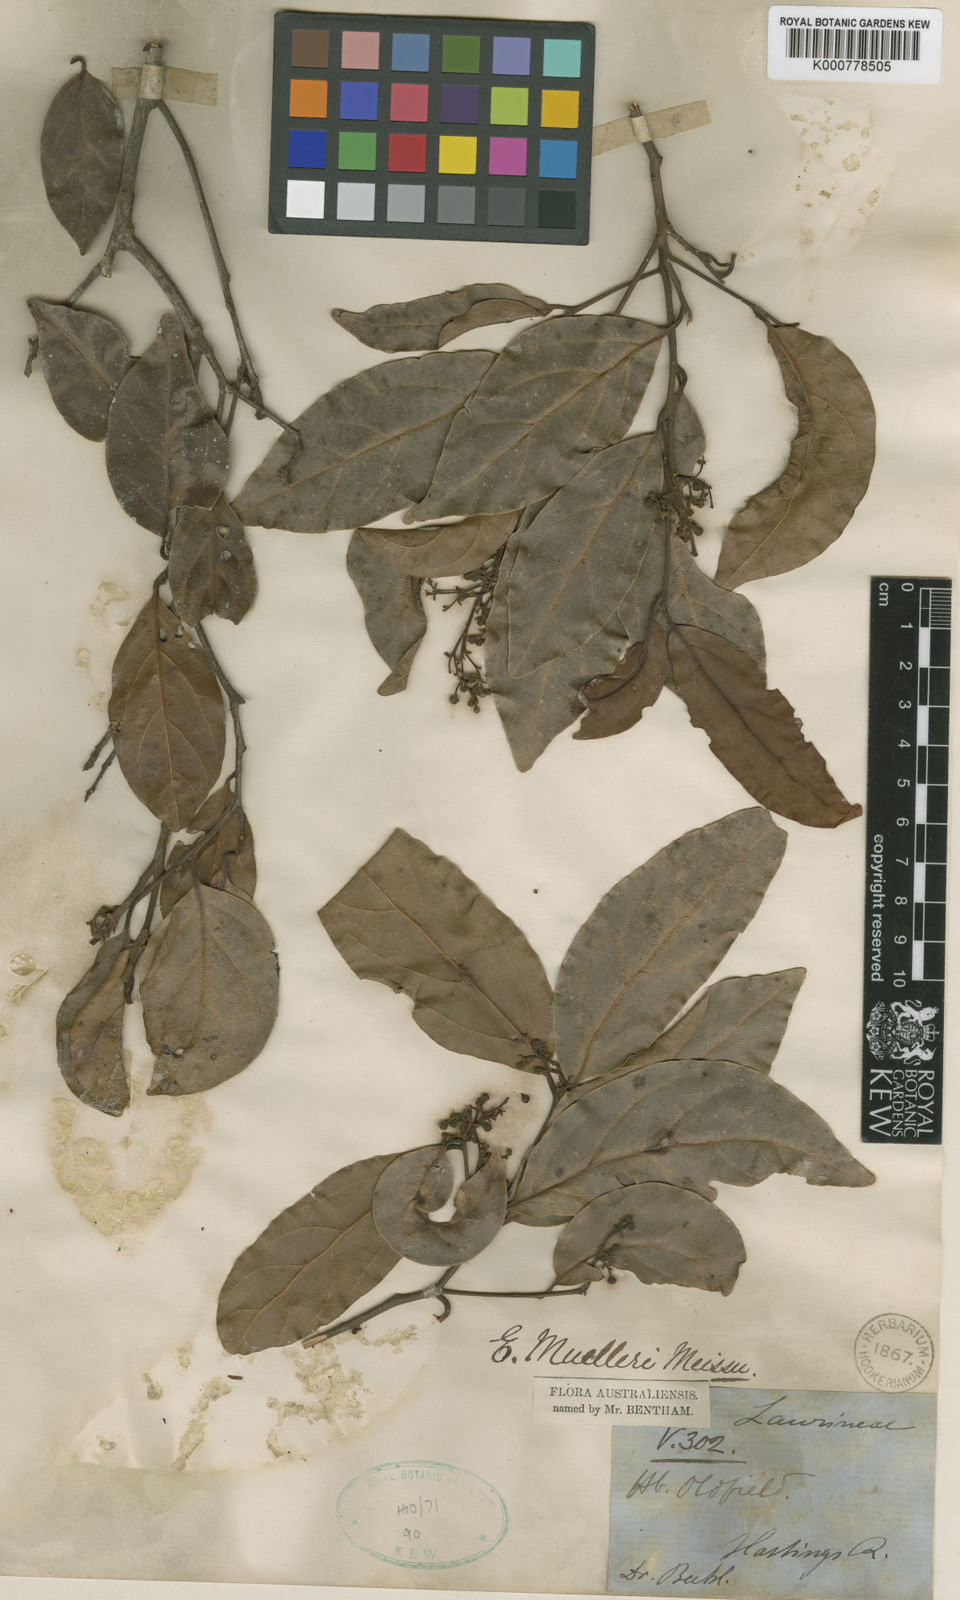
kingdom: Plantae
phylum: Tracheophyta
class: Magnoliopsida
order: Laurales
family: Lauraceae
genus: Endiandra
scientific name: Endiandra muelleri
